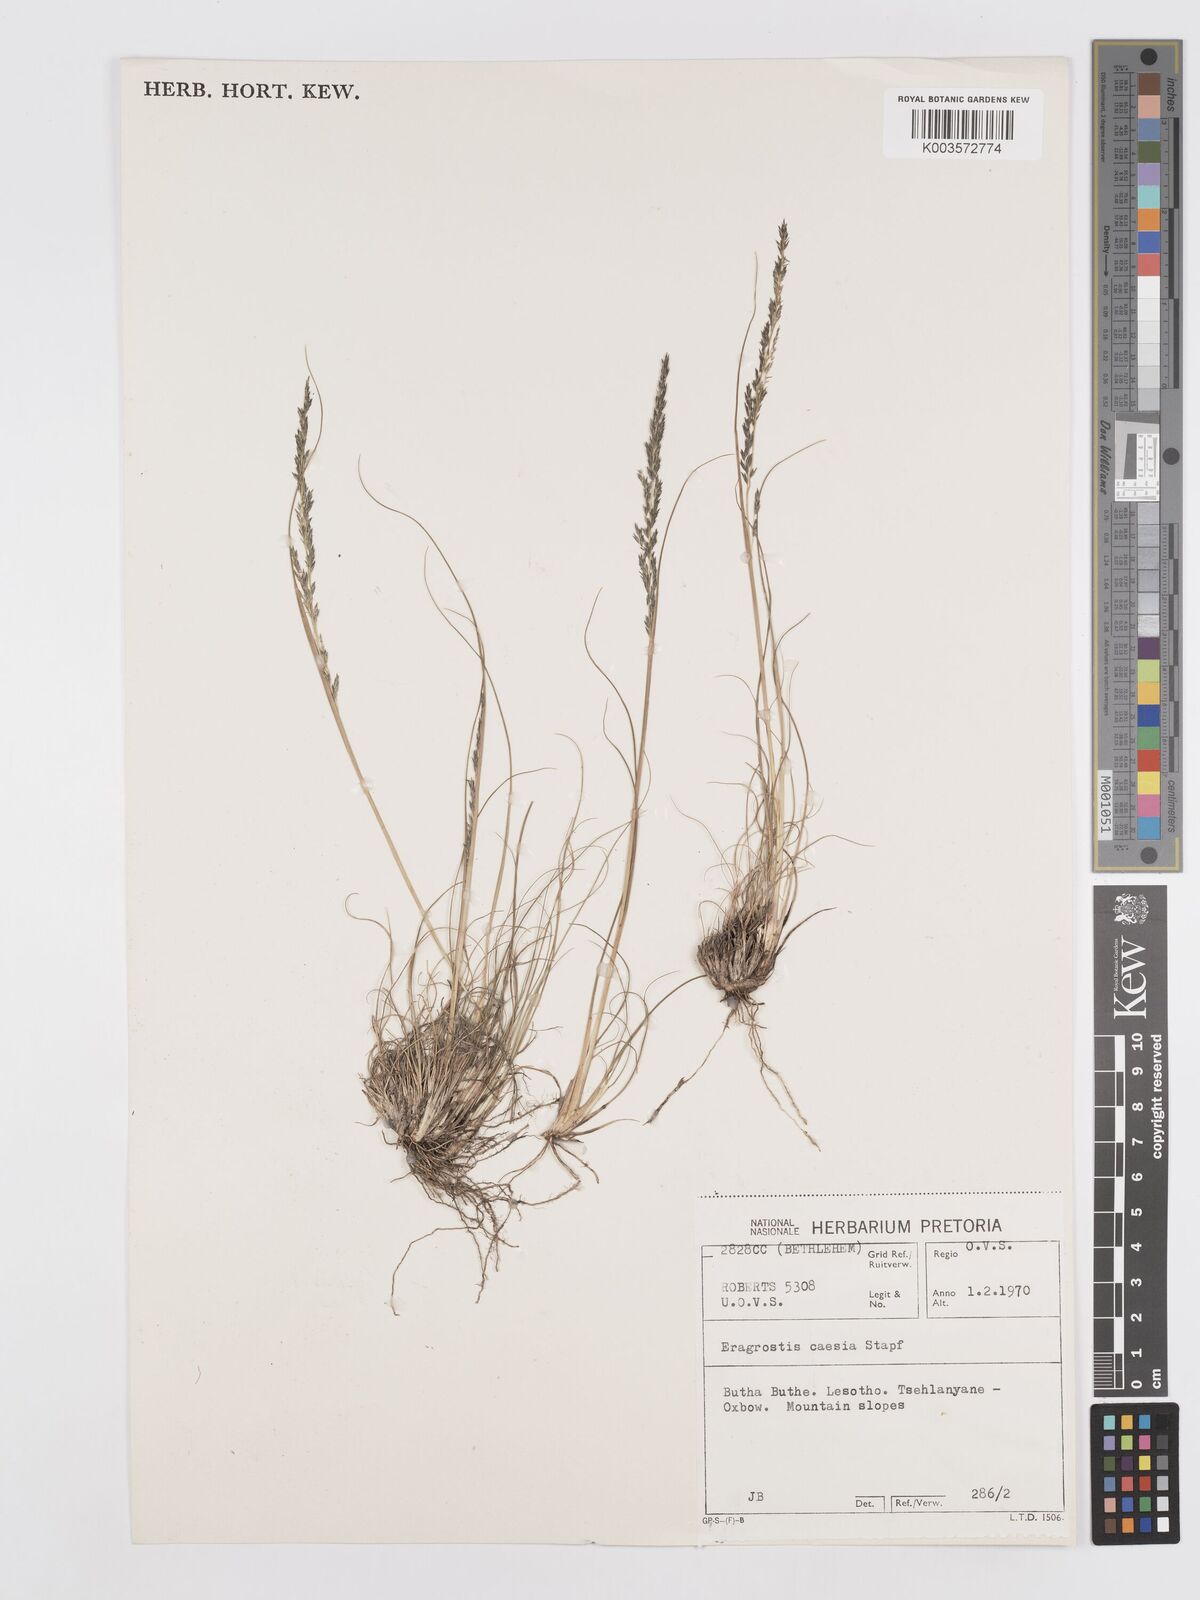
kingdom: Plantae
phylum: Tracheophyta
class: Liliopsida
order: Poales
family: Poaceae
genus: Eragrostis
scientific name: Eragrostis caesia
